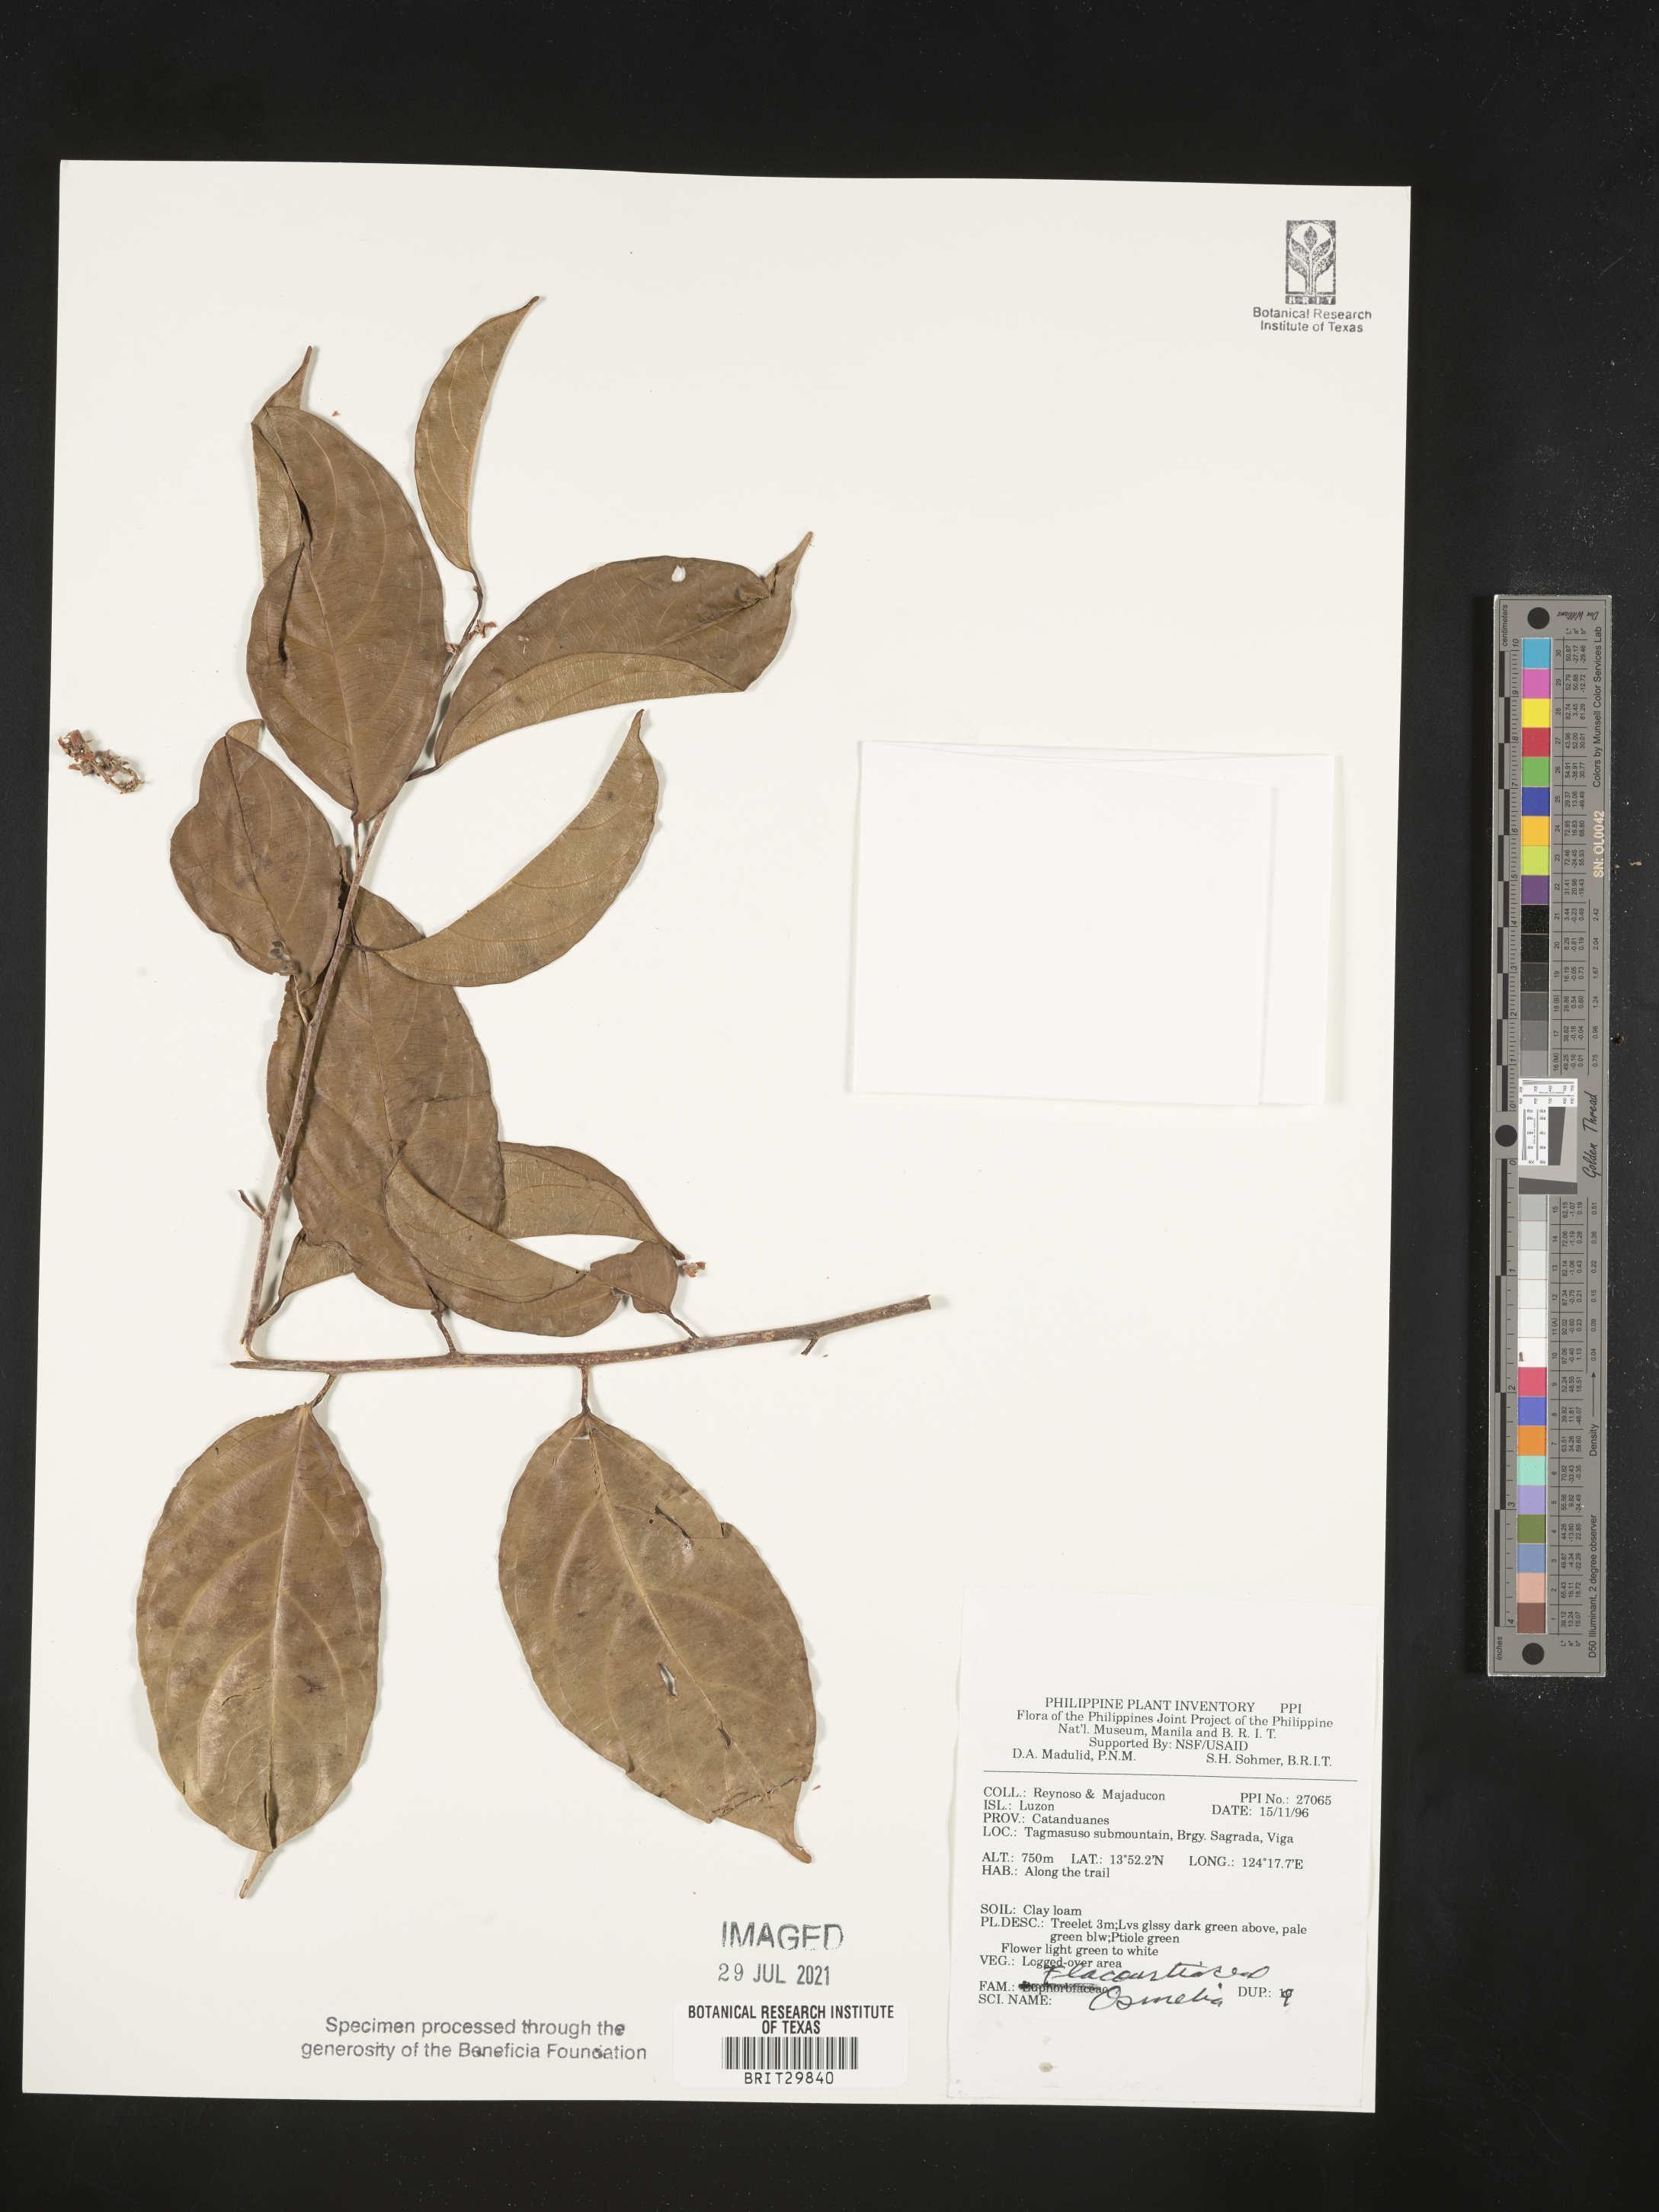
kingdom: Plantae
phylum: Tracheophyta
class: Magnoliopsida
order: Malpighiales
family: Salicaceae
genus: Osmelia
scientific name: Osmelia
